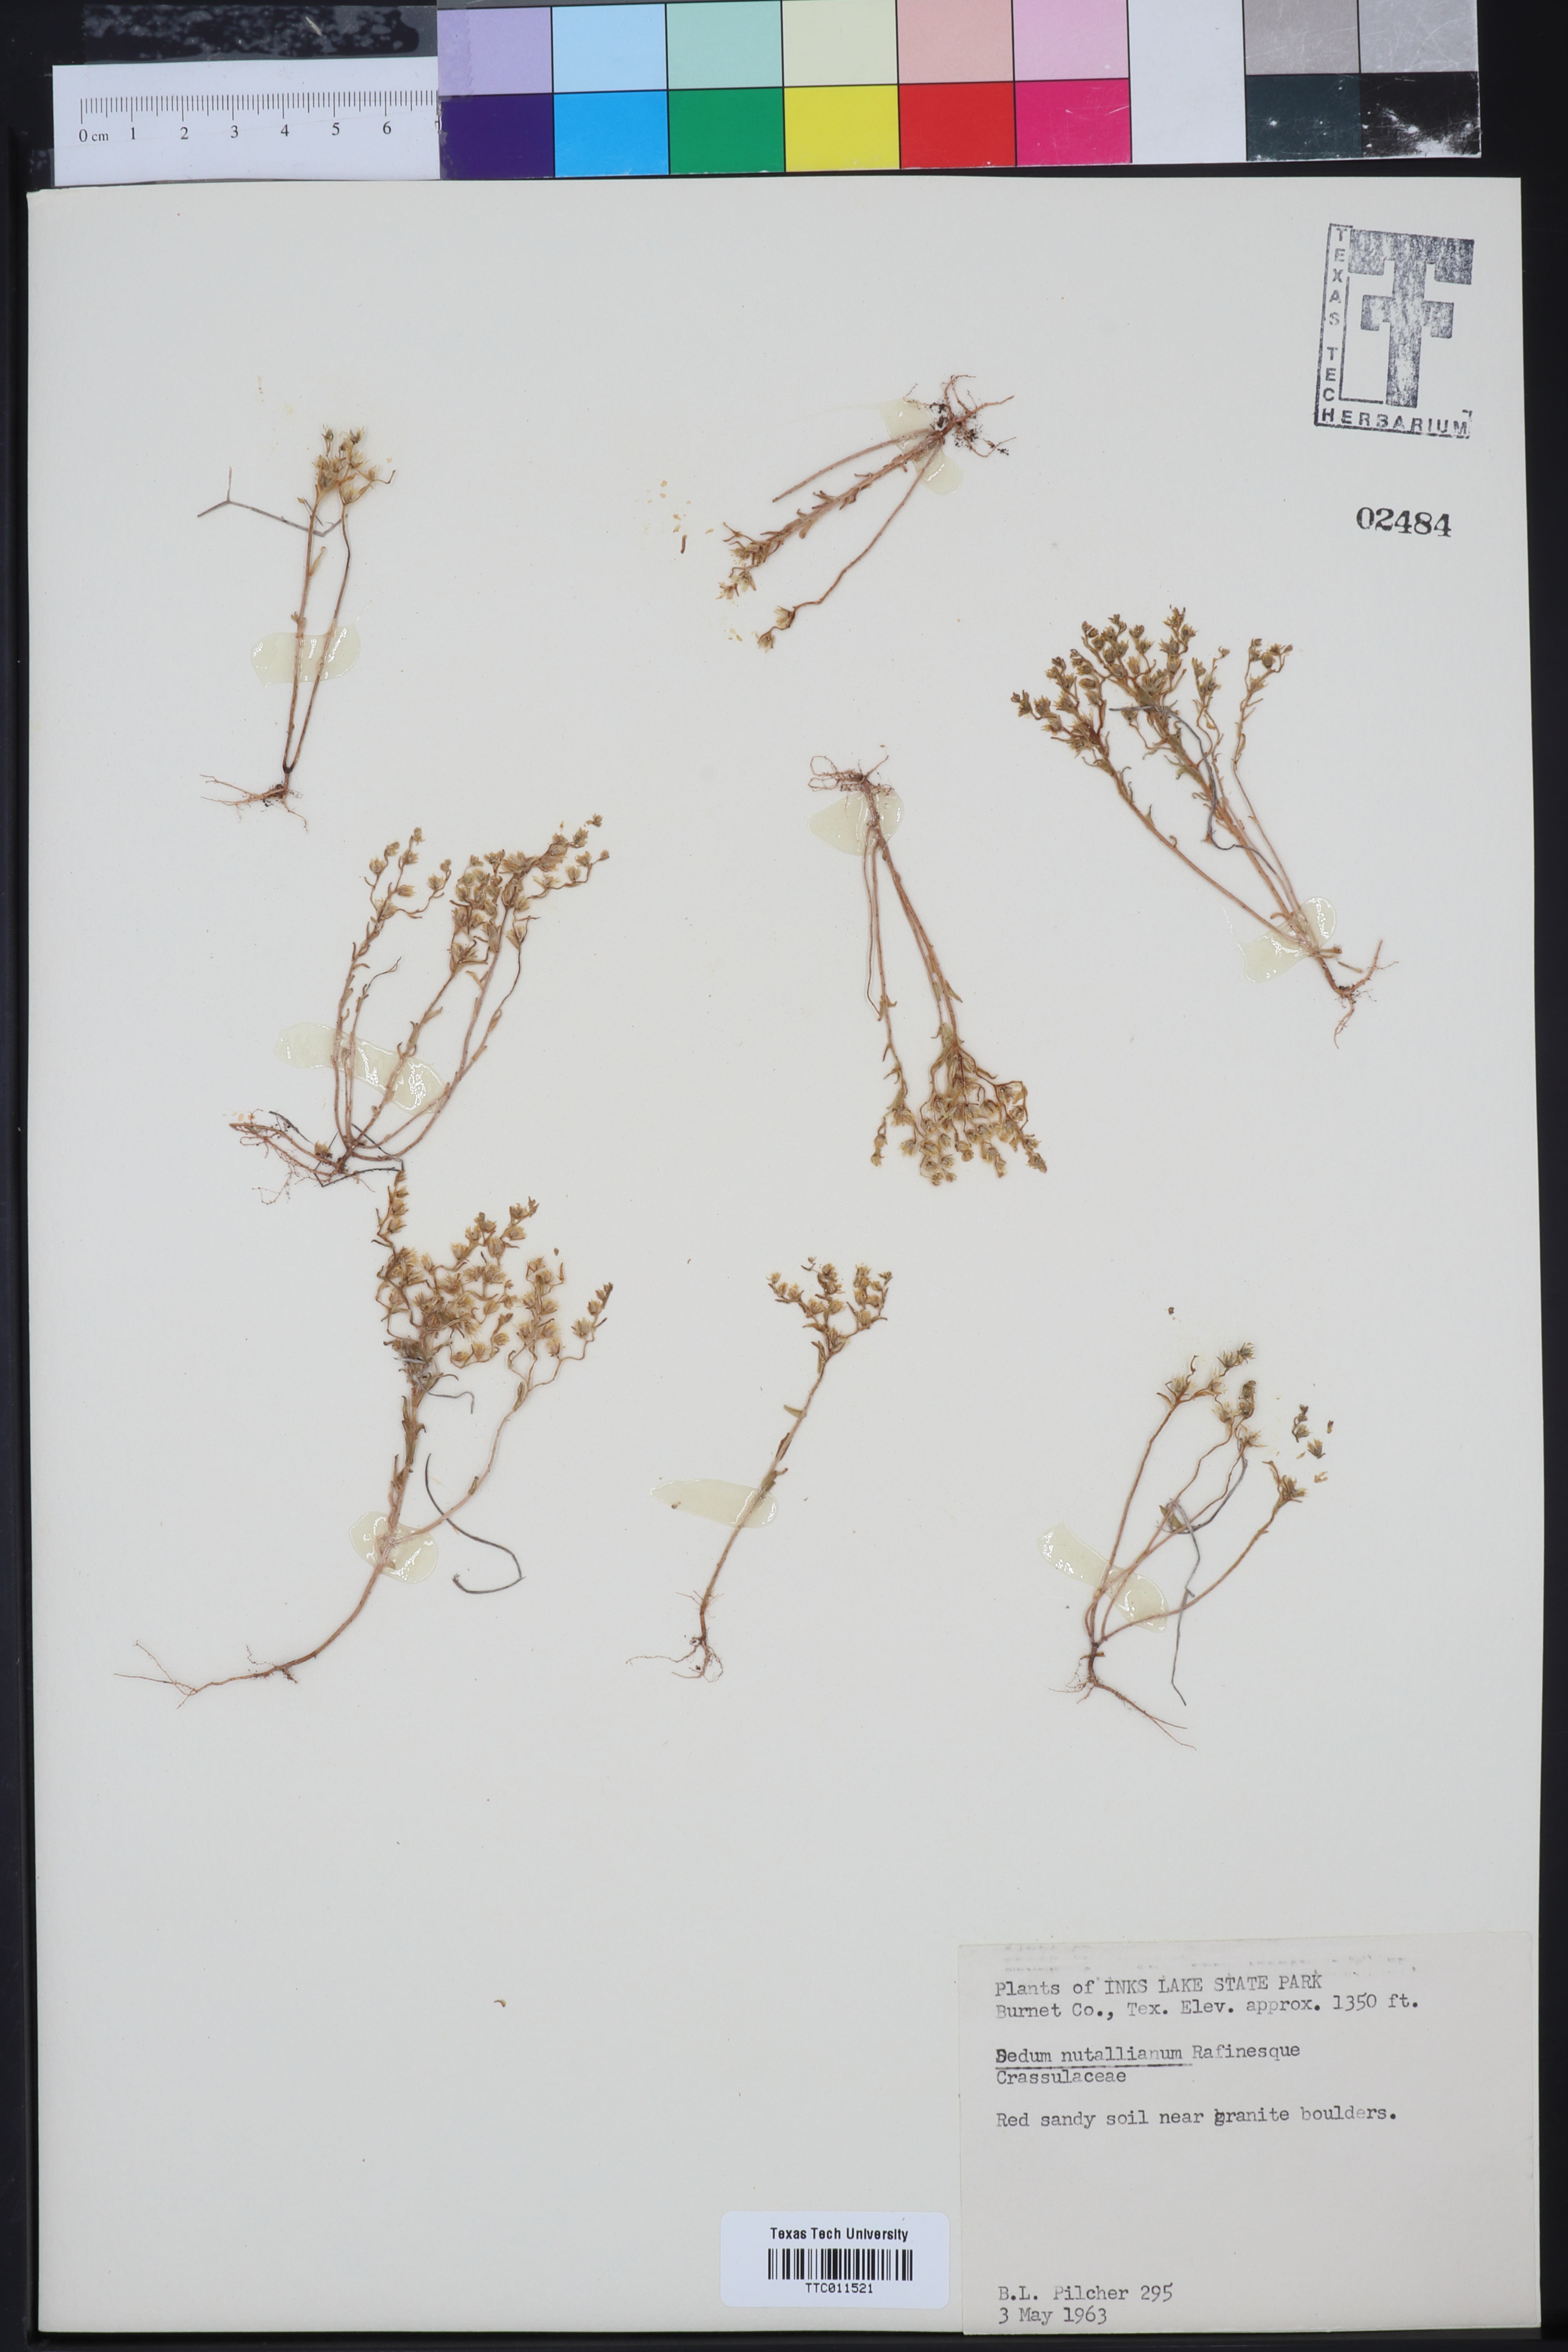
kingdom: Plantae
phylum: Tracheophyta
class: Magnoliopsida
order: Saxifragales
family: Crassulaceae
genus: Sedum
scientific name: Sedum nuttallii
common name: Yellow stonecrop
